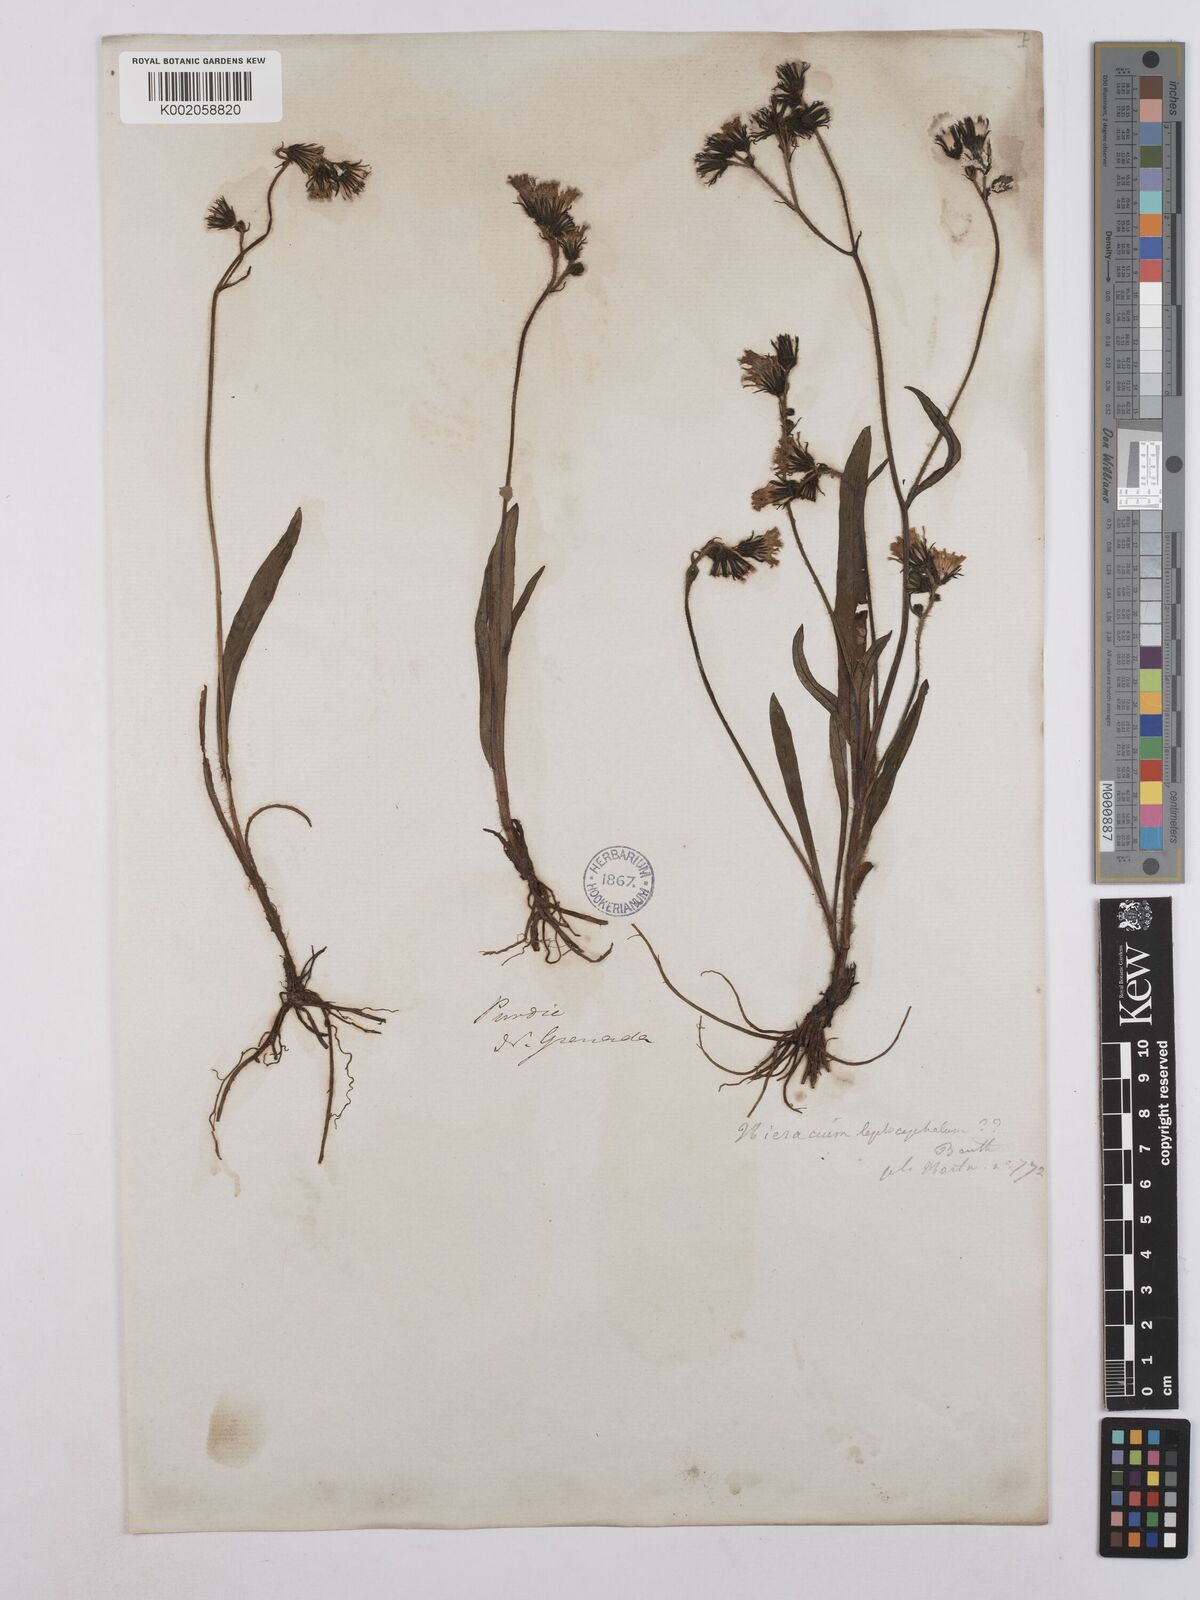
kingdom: Plantae
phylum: Tracheophyta
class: Magnoliopsida
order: Asterales
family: Asteraceae
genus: Hieracium
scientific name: Hieracium leptocephalum
